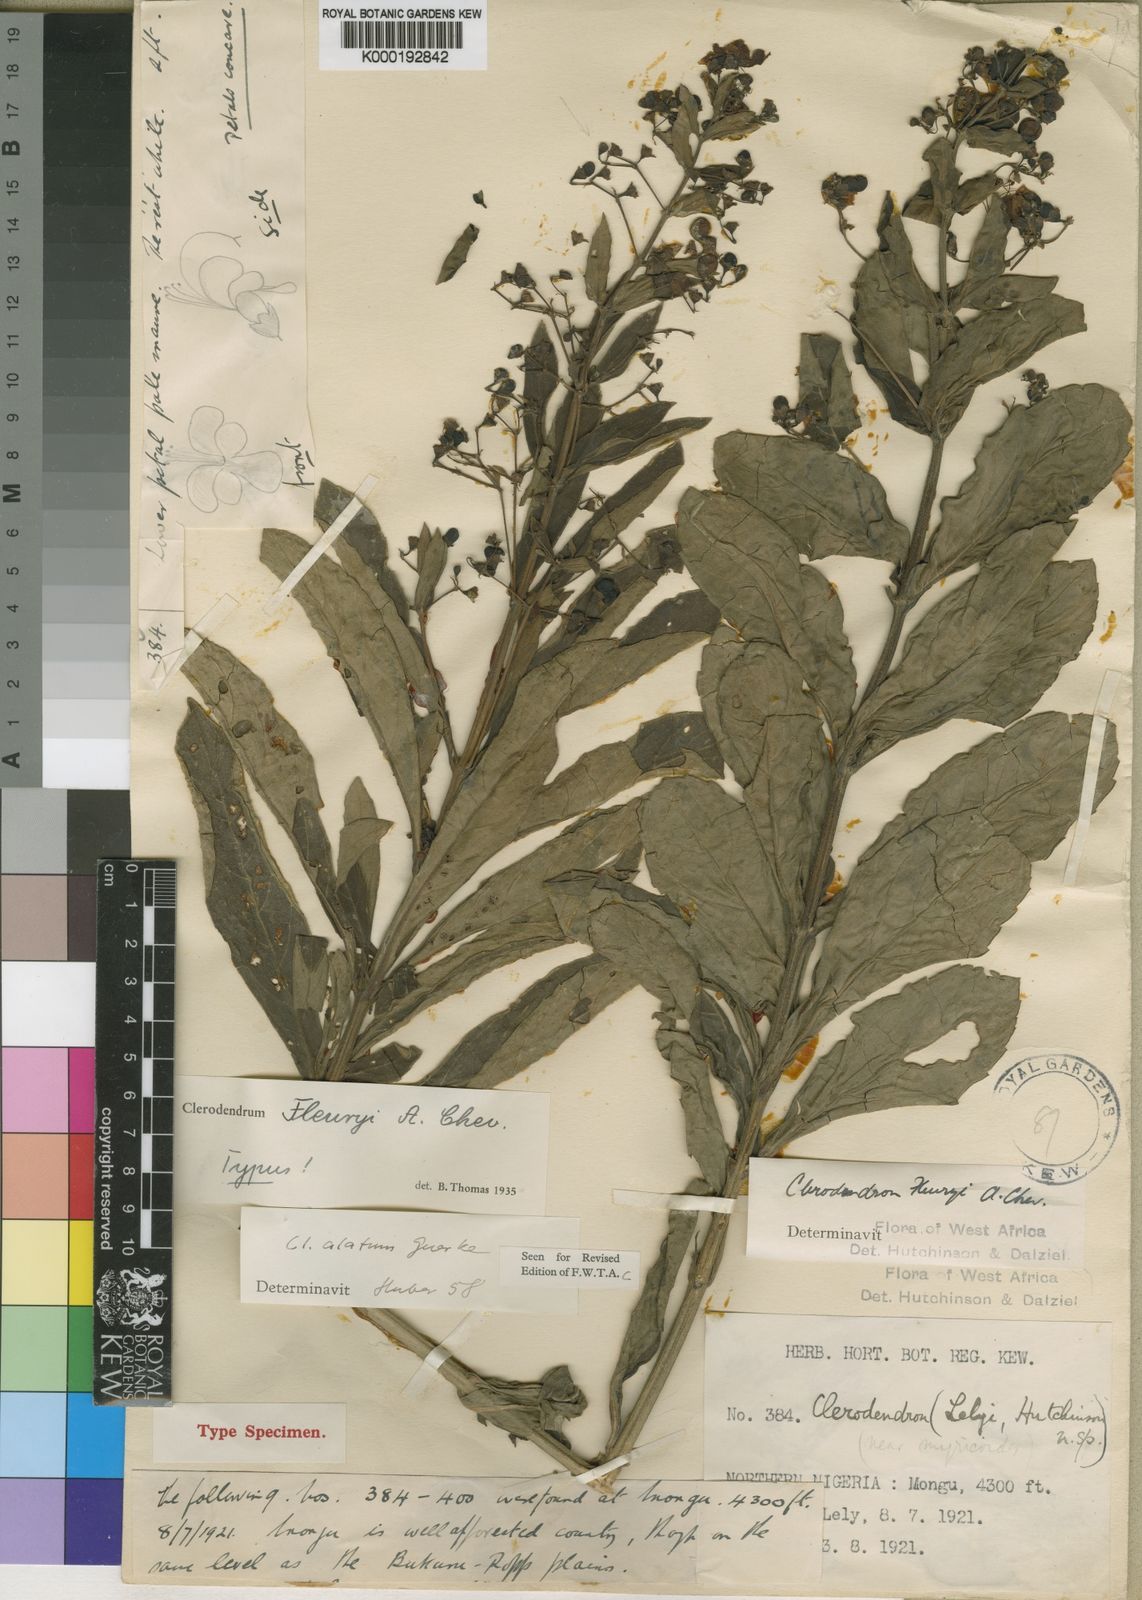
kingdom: Plantae
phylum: Tracheophyta
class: Magnoliopsida
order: Lamiales
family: Lamiaceae
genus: Rotheca
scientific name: Rotheca alata
